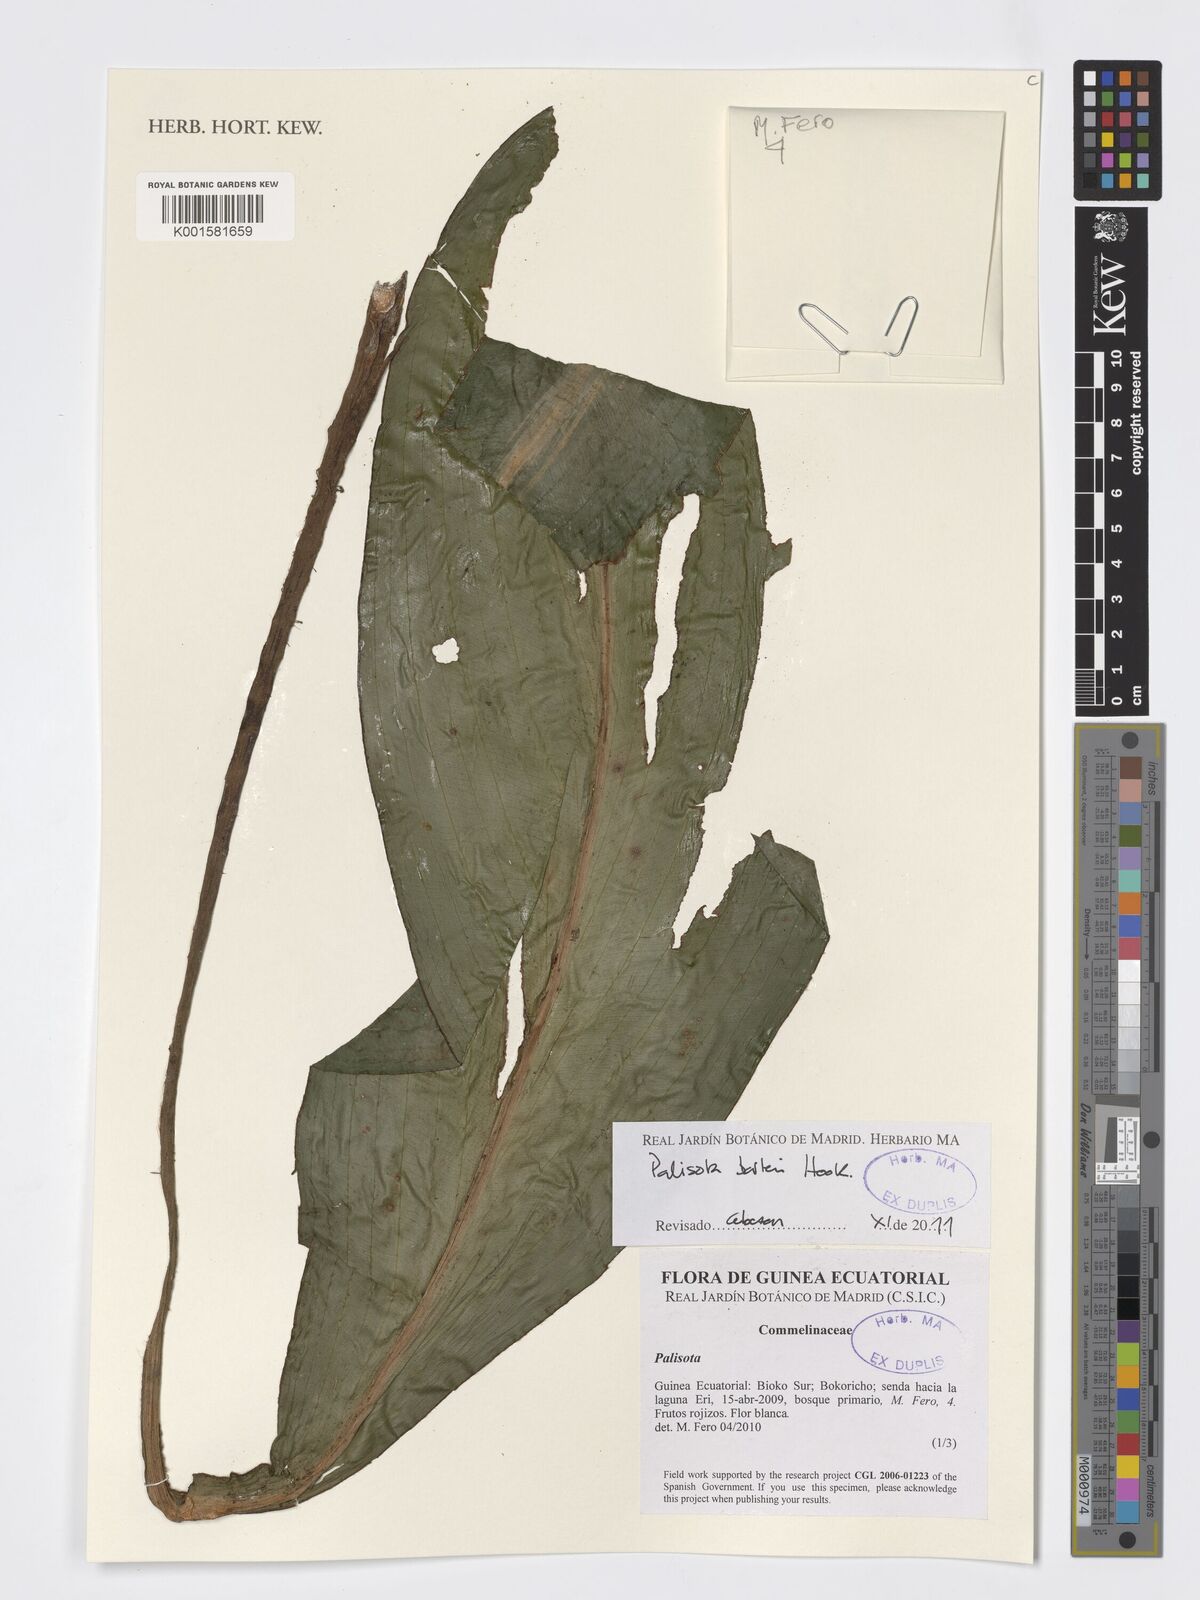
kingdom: Plantae
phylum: Tracheophyta
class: Liliopsida
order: Commelinales
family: Commelinaceae
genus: Palisota
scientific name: Palisota barteri
